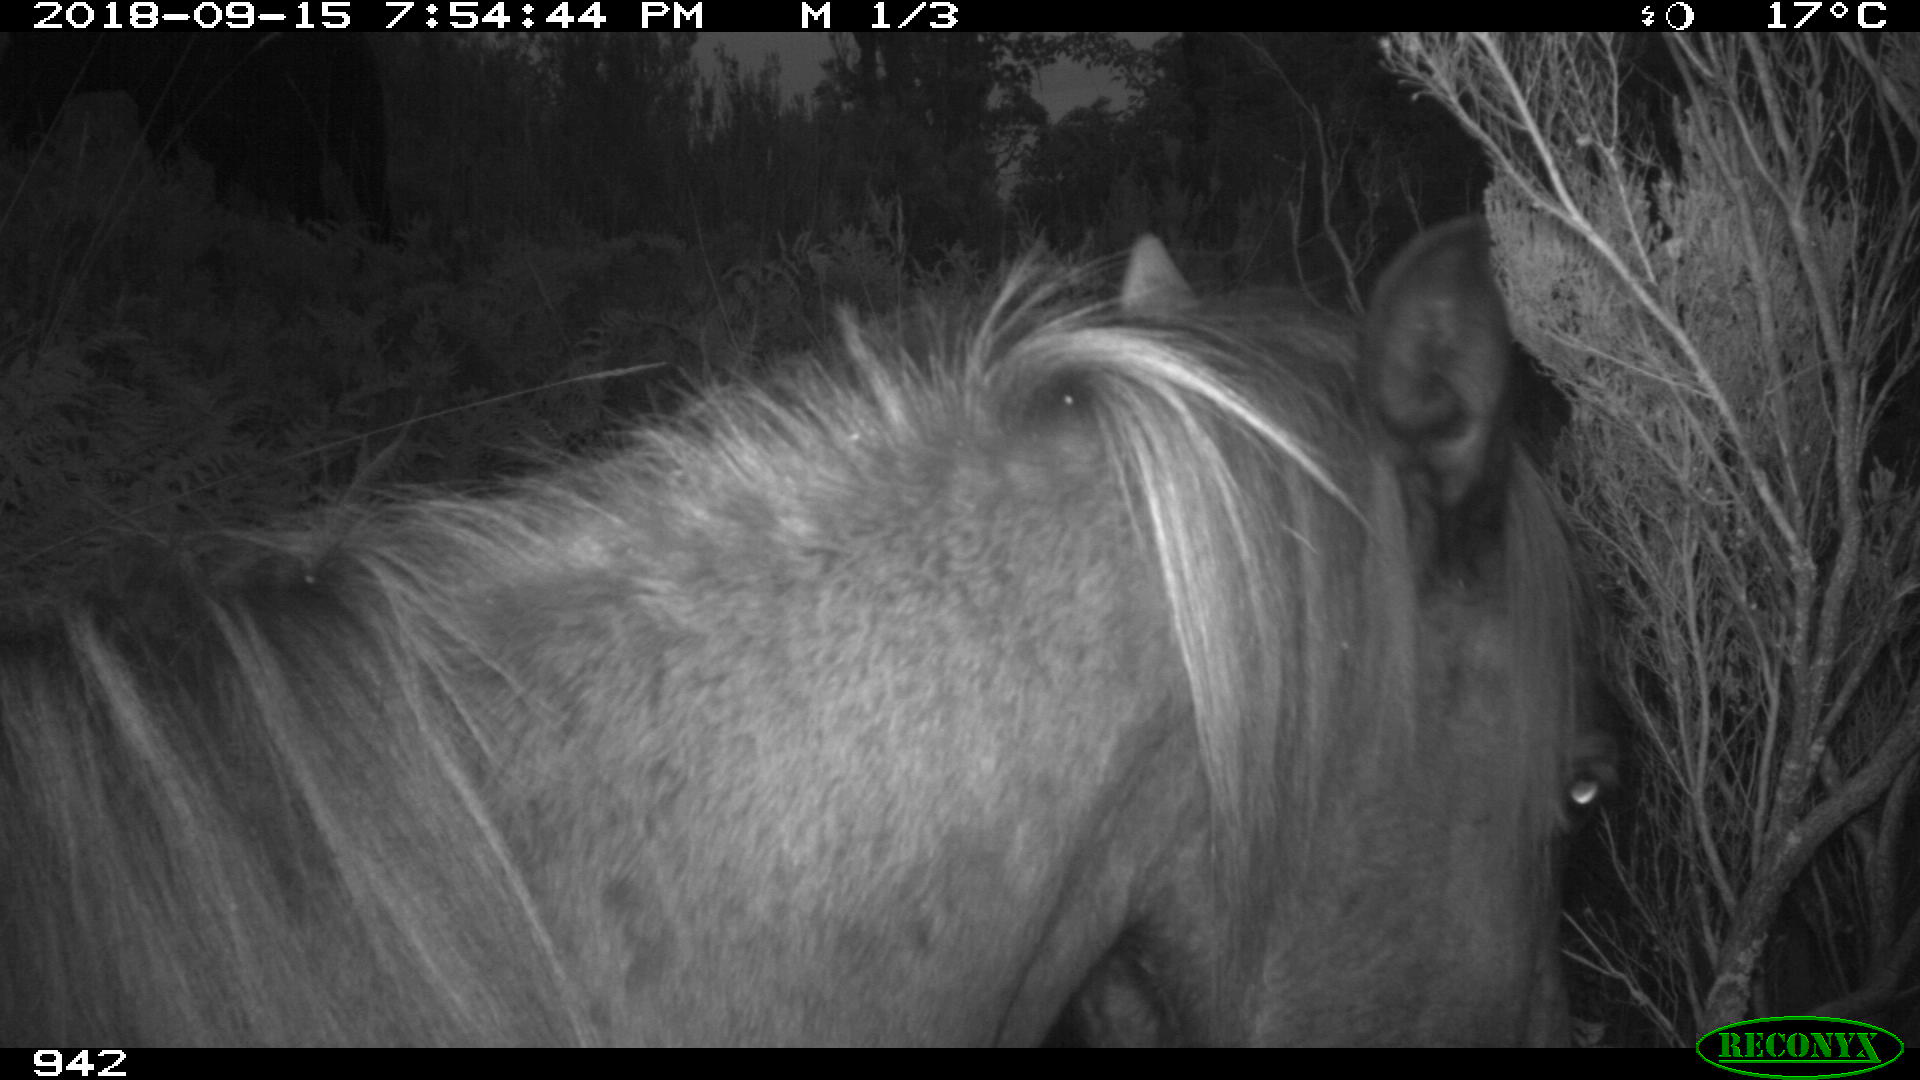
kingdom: Animalia
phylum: Chordata
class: Mammalia
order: Perissodactyla
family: Equidae
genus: Equus
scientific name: Equus caballus
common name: Horse
